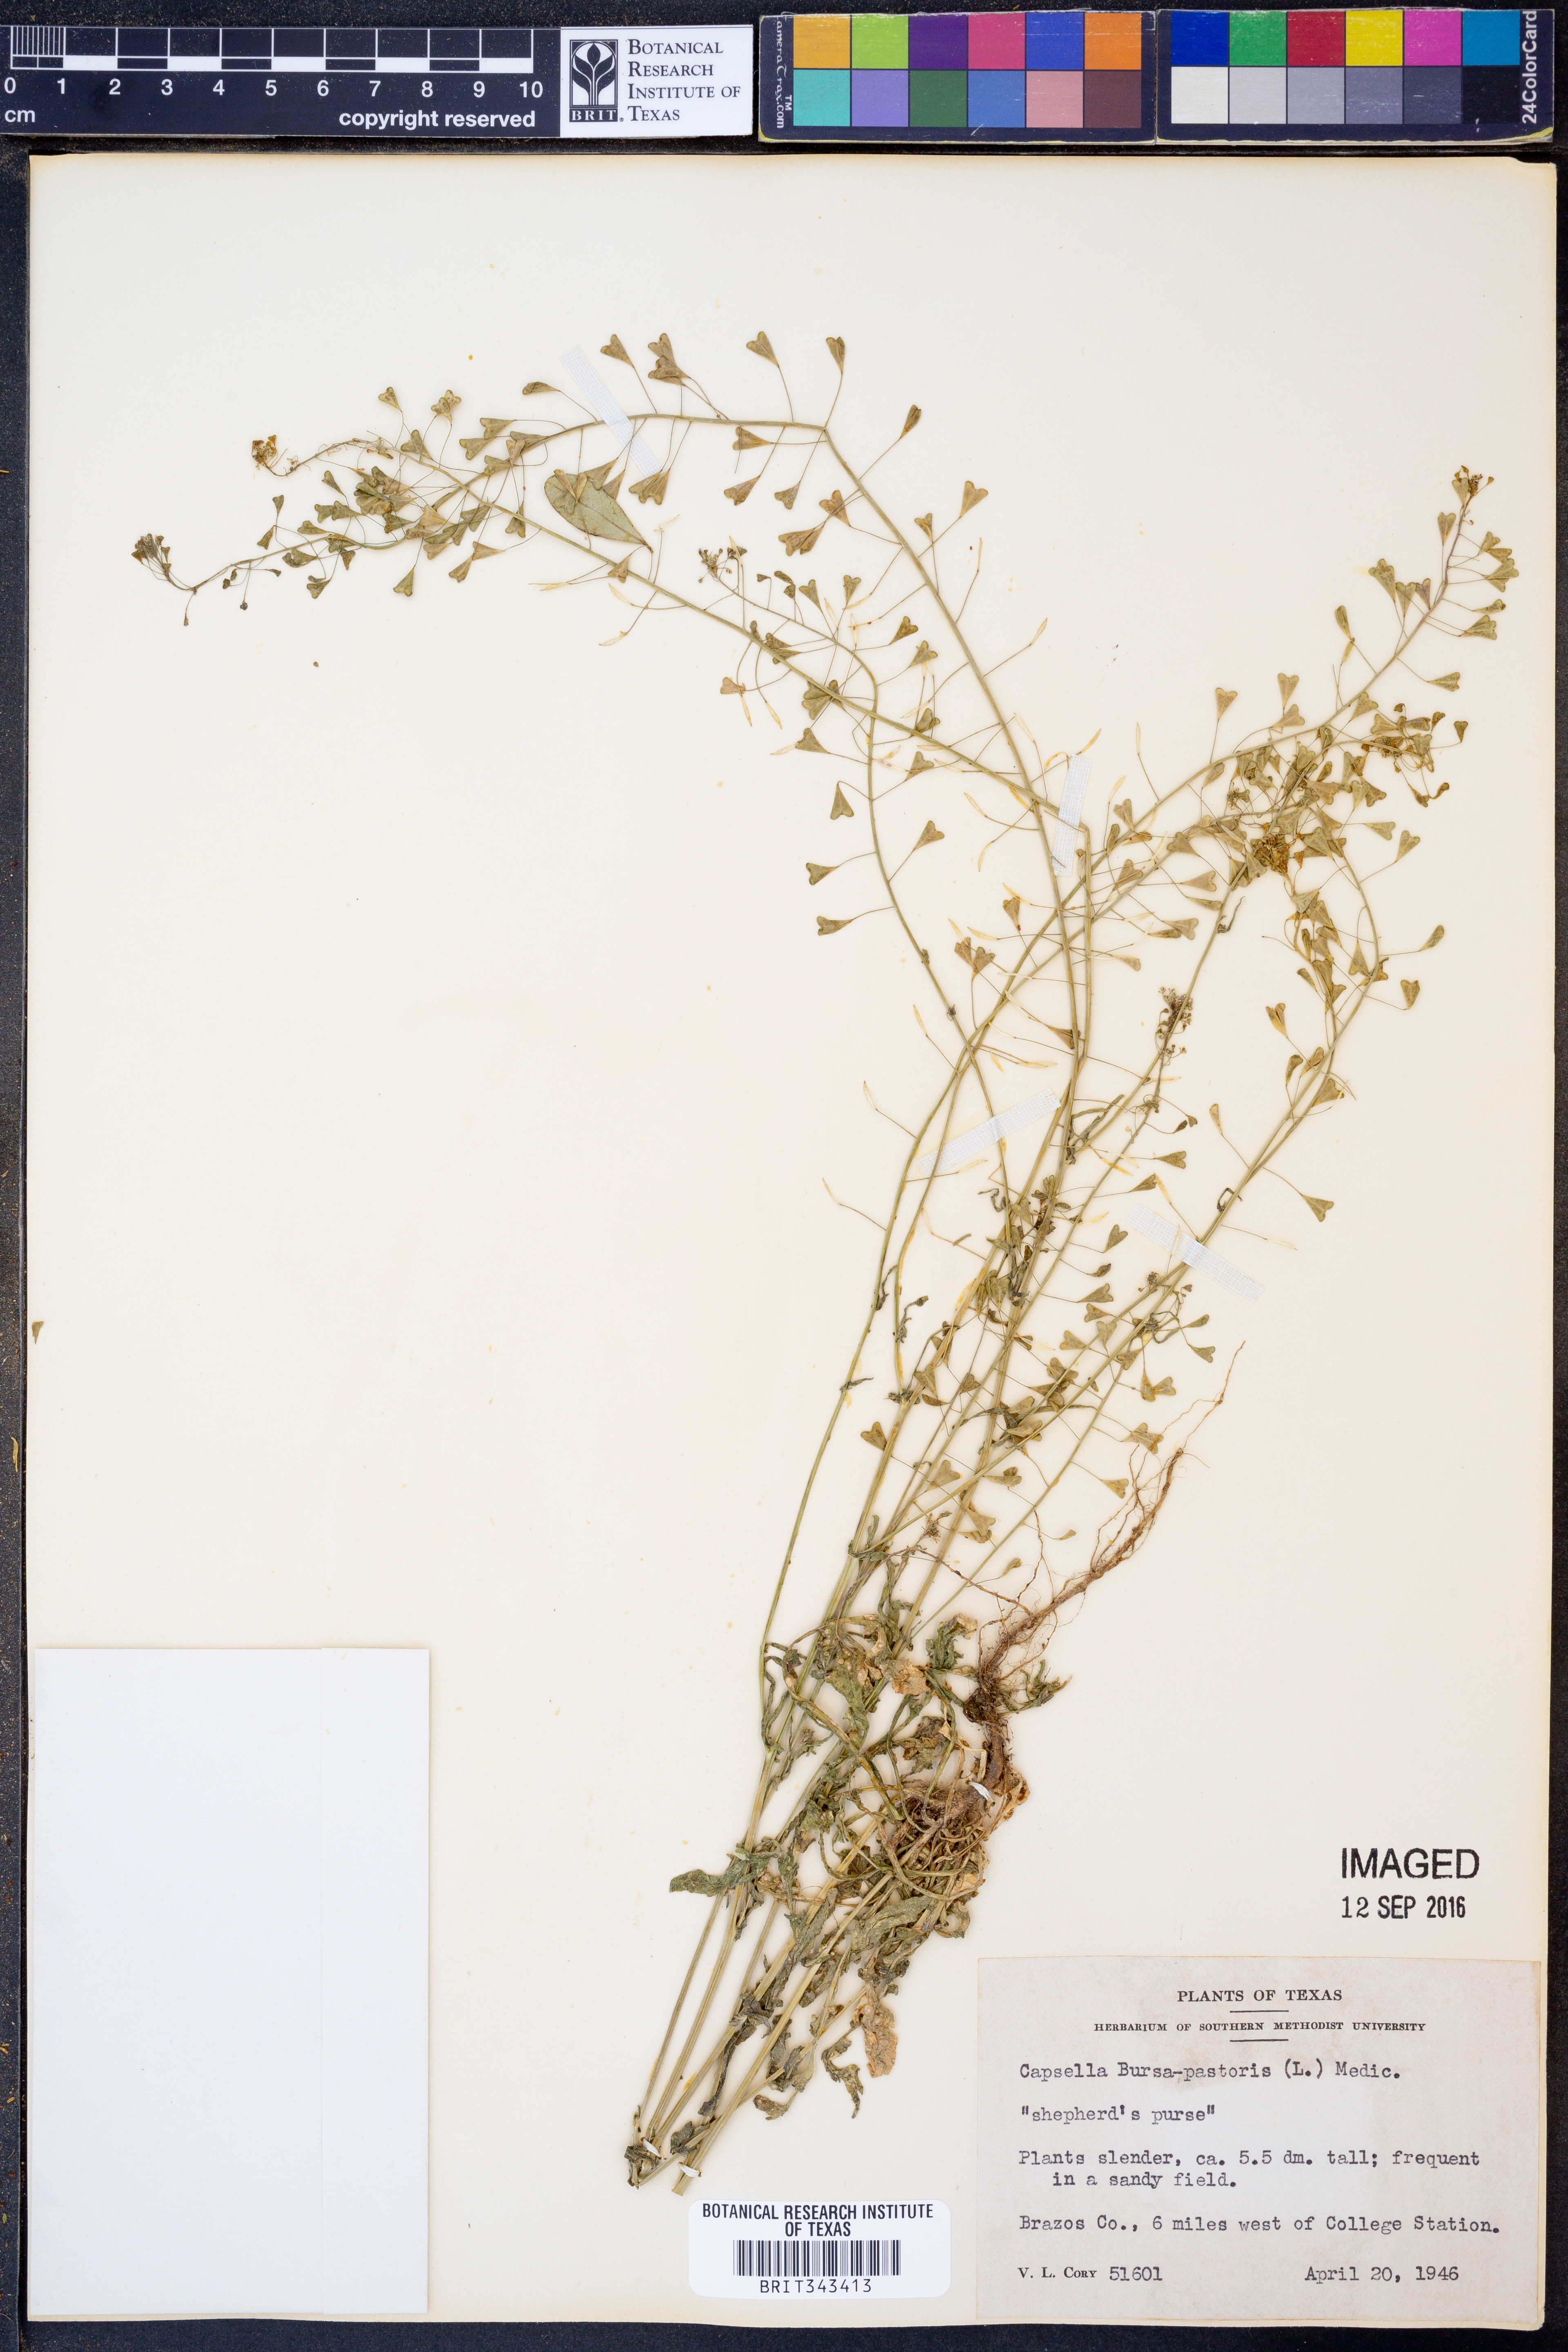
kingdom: Plantae
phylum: Tracheophyta
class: Magnoliopsida
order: Brassicales
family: Brassicaceae
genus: Capsella
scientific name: Capsella bursa-pastoris
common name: Shepherd's purse
